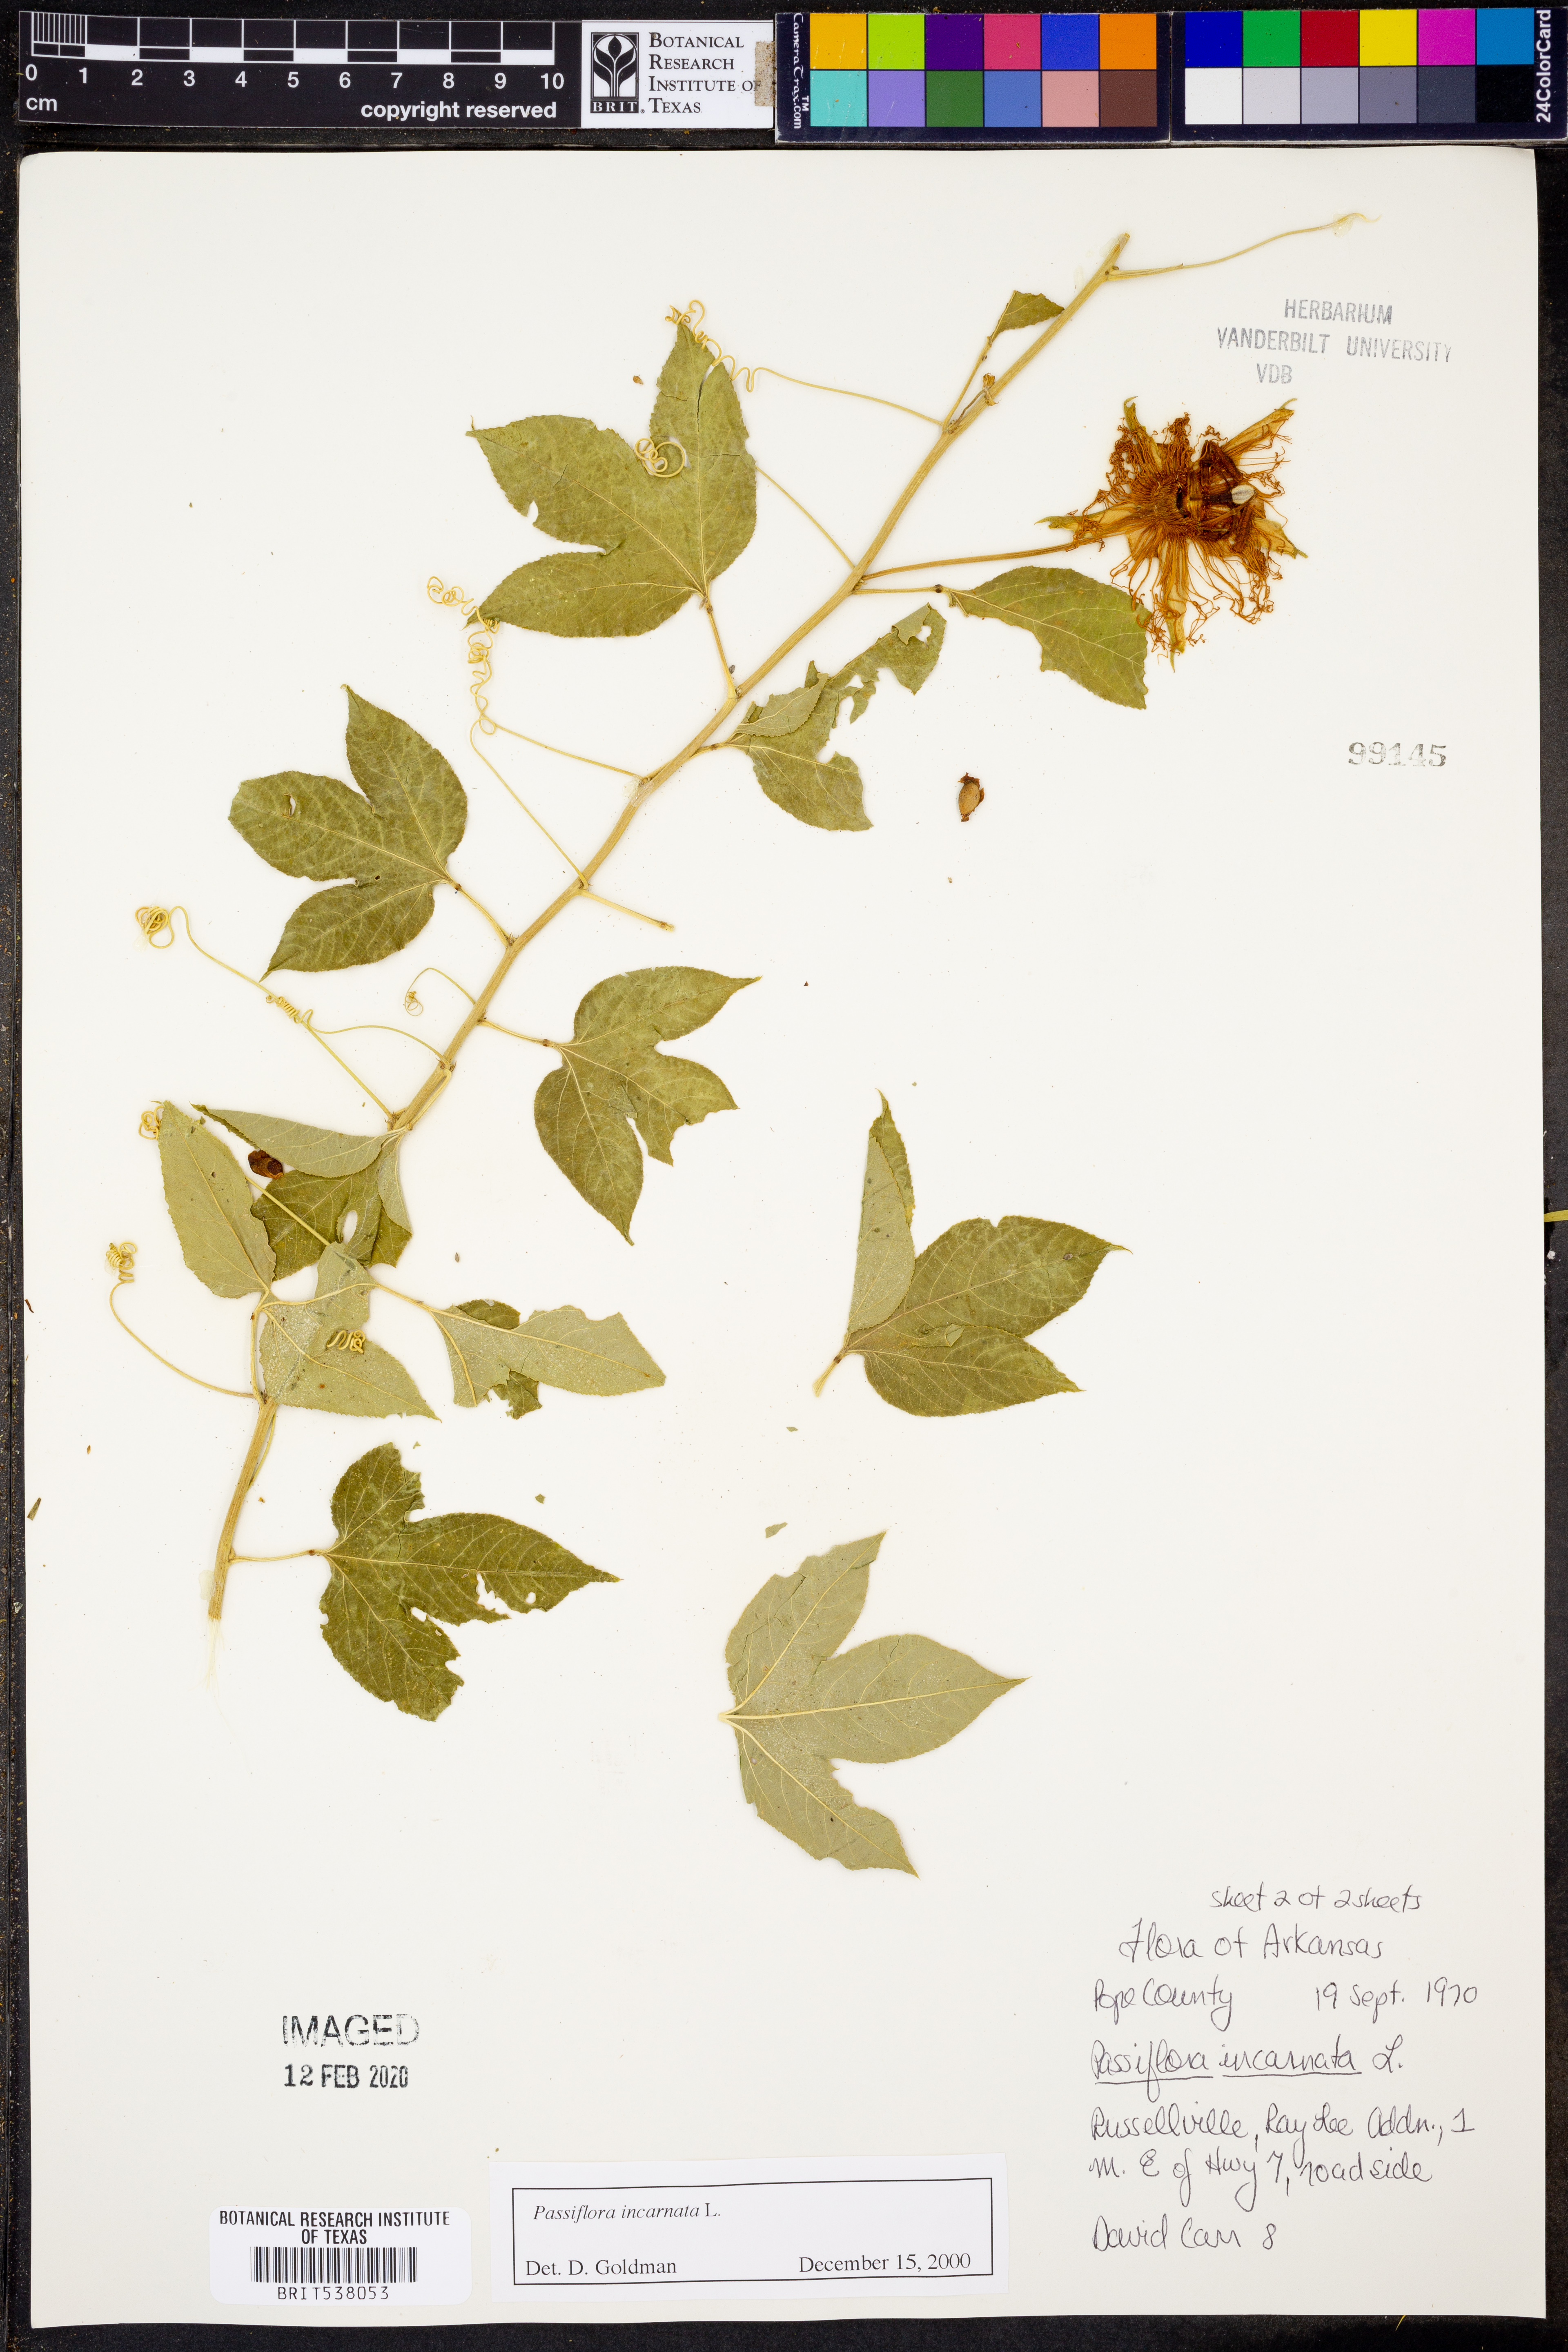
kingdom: Plantae
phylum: Tracheophyta
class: Magnoliopsida
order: Malpighiales
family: Passifloraceae
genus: Passiflora
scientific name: Passiflora incarnata
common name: Apricot-vine
